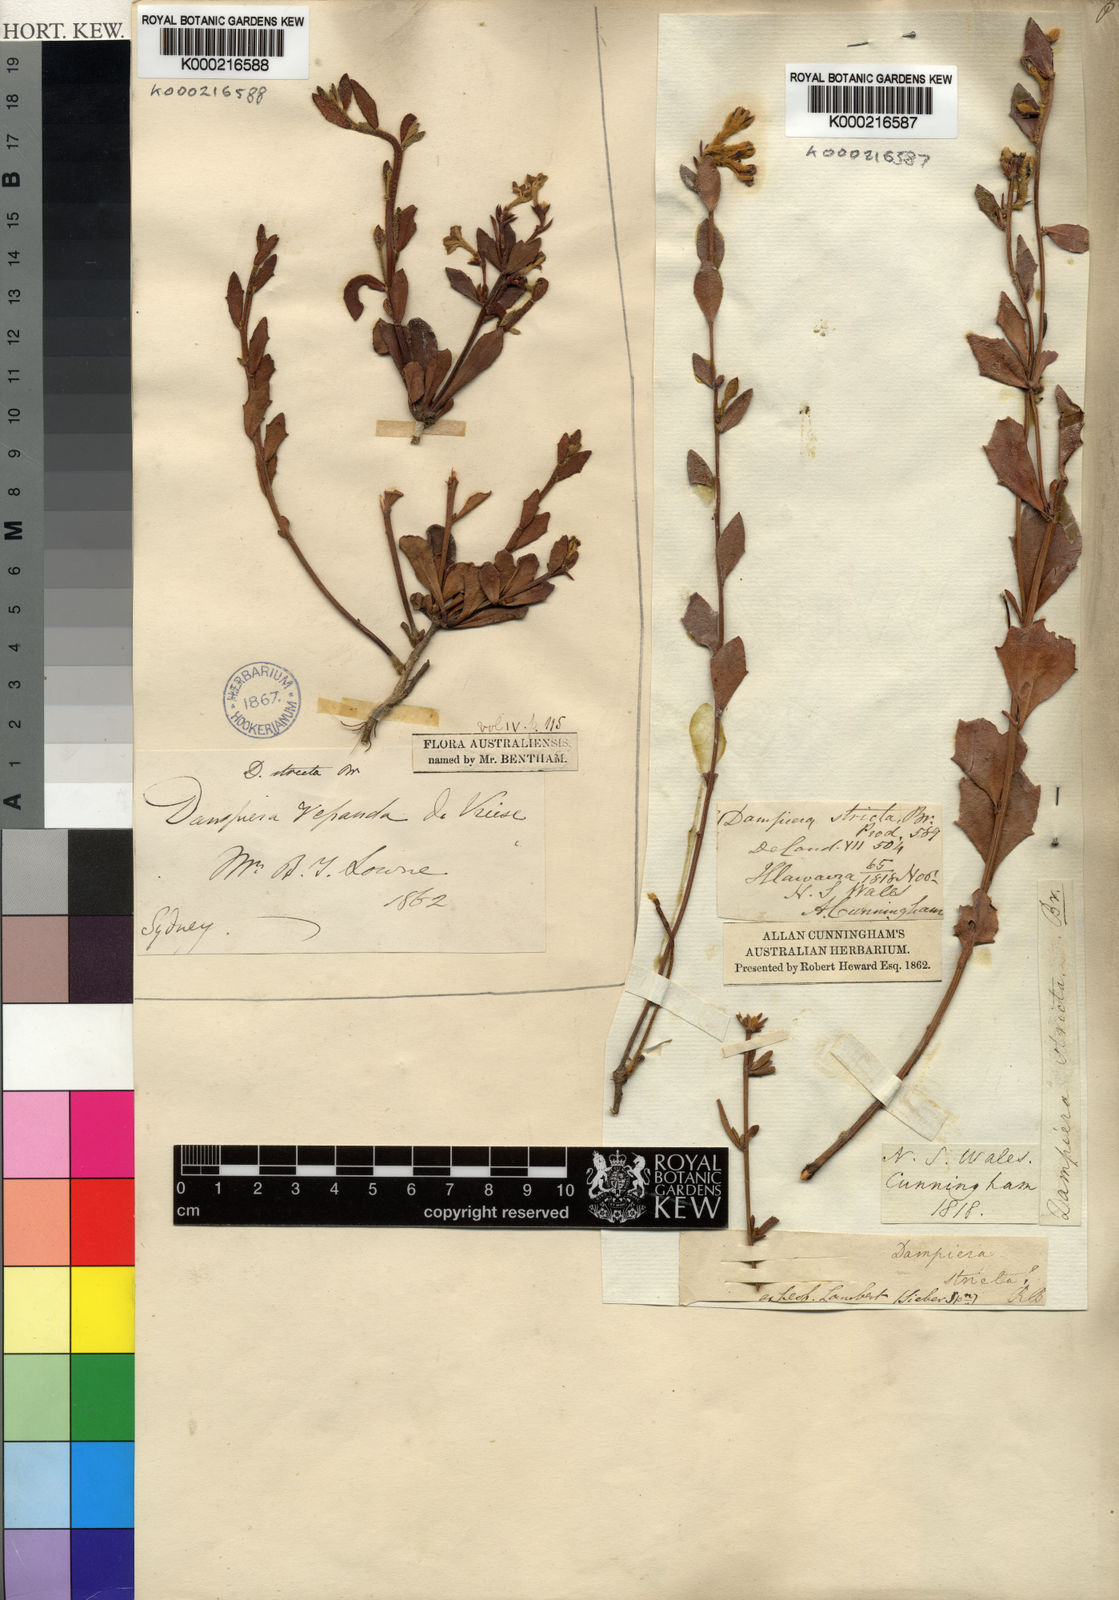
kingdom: Plantae
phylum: Tracheophyta
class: Magnoliopsida
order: Asterales
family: Goodeniaceae
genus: Dampiera
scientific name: Dampiera stricta
